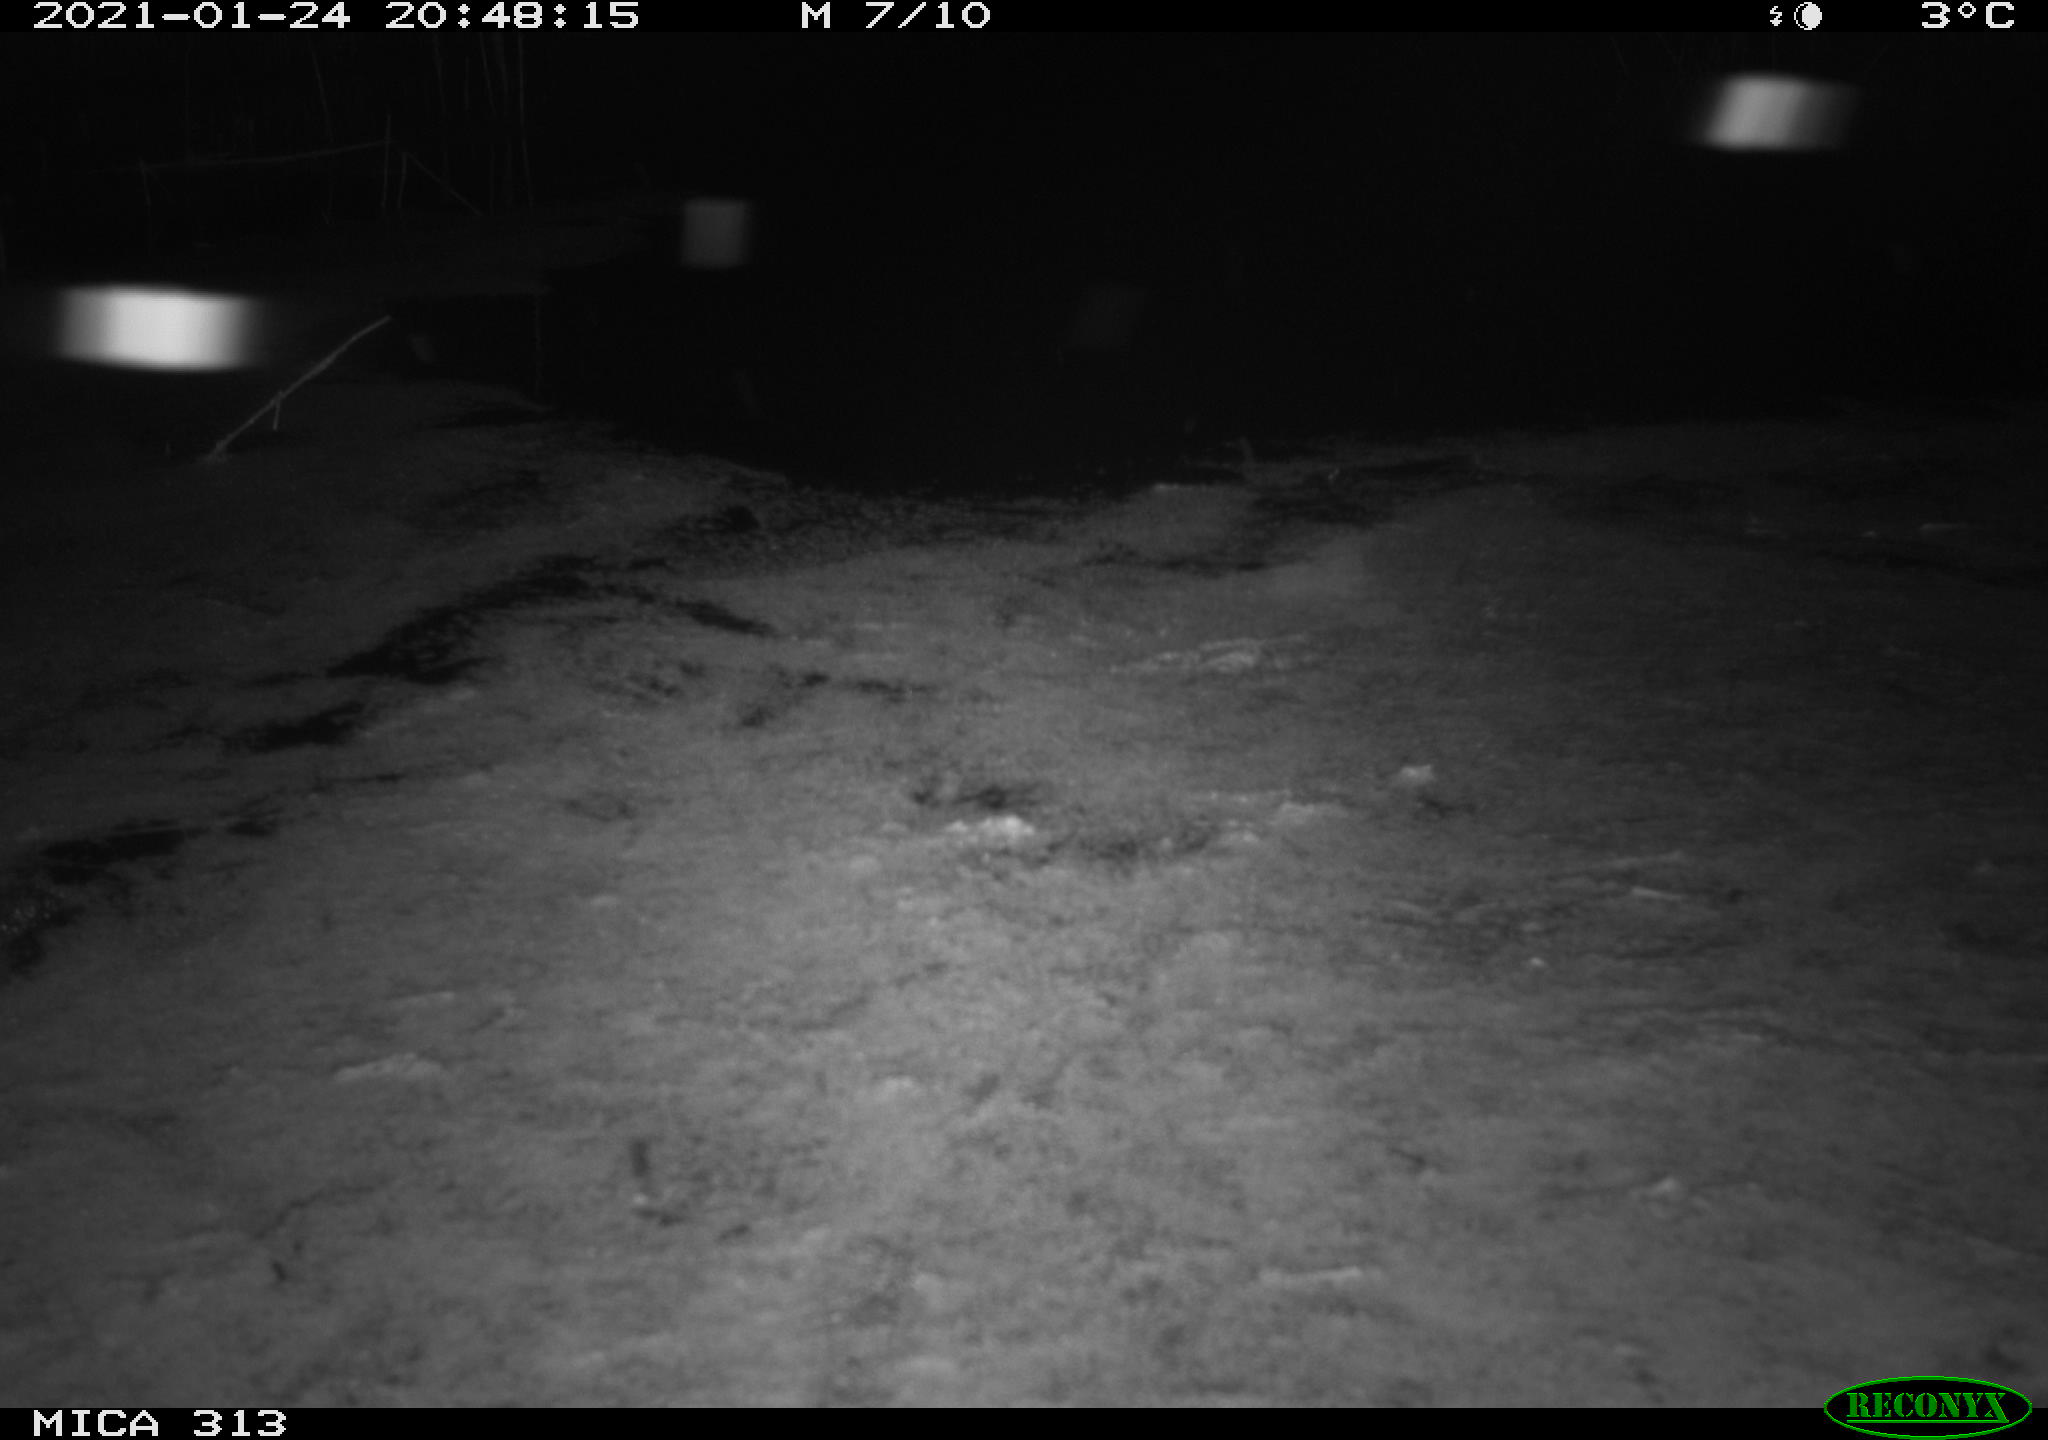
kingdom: Animalia
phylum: Chordata
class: Aves
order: Gruiformes
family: Rallidae
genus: Gallinula
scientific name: Gallinula chloropus
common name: Common moorhen
